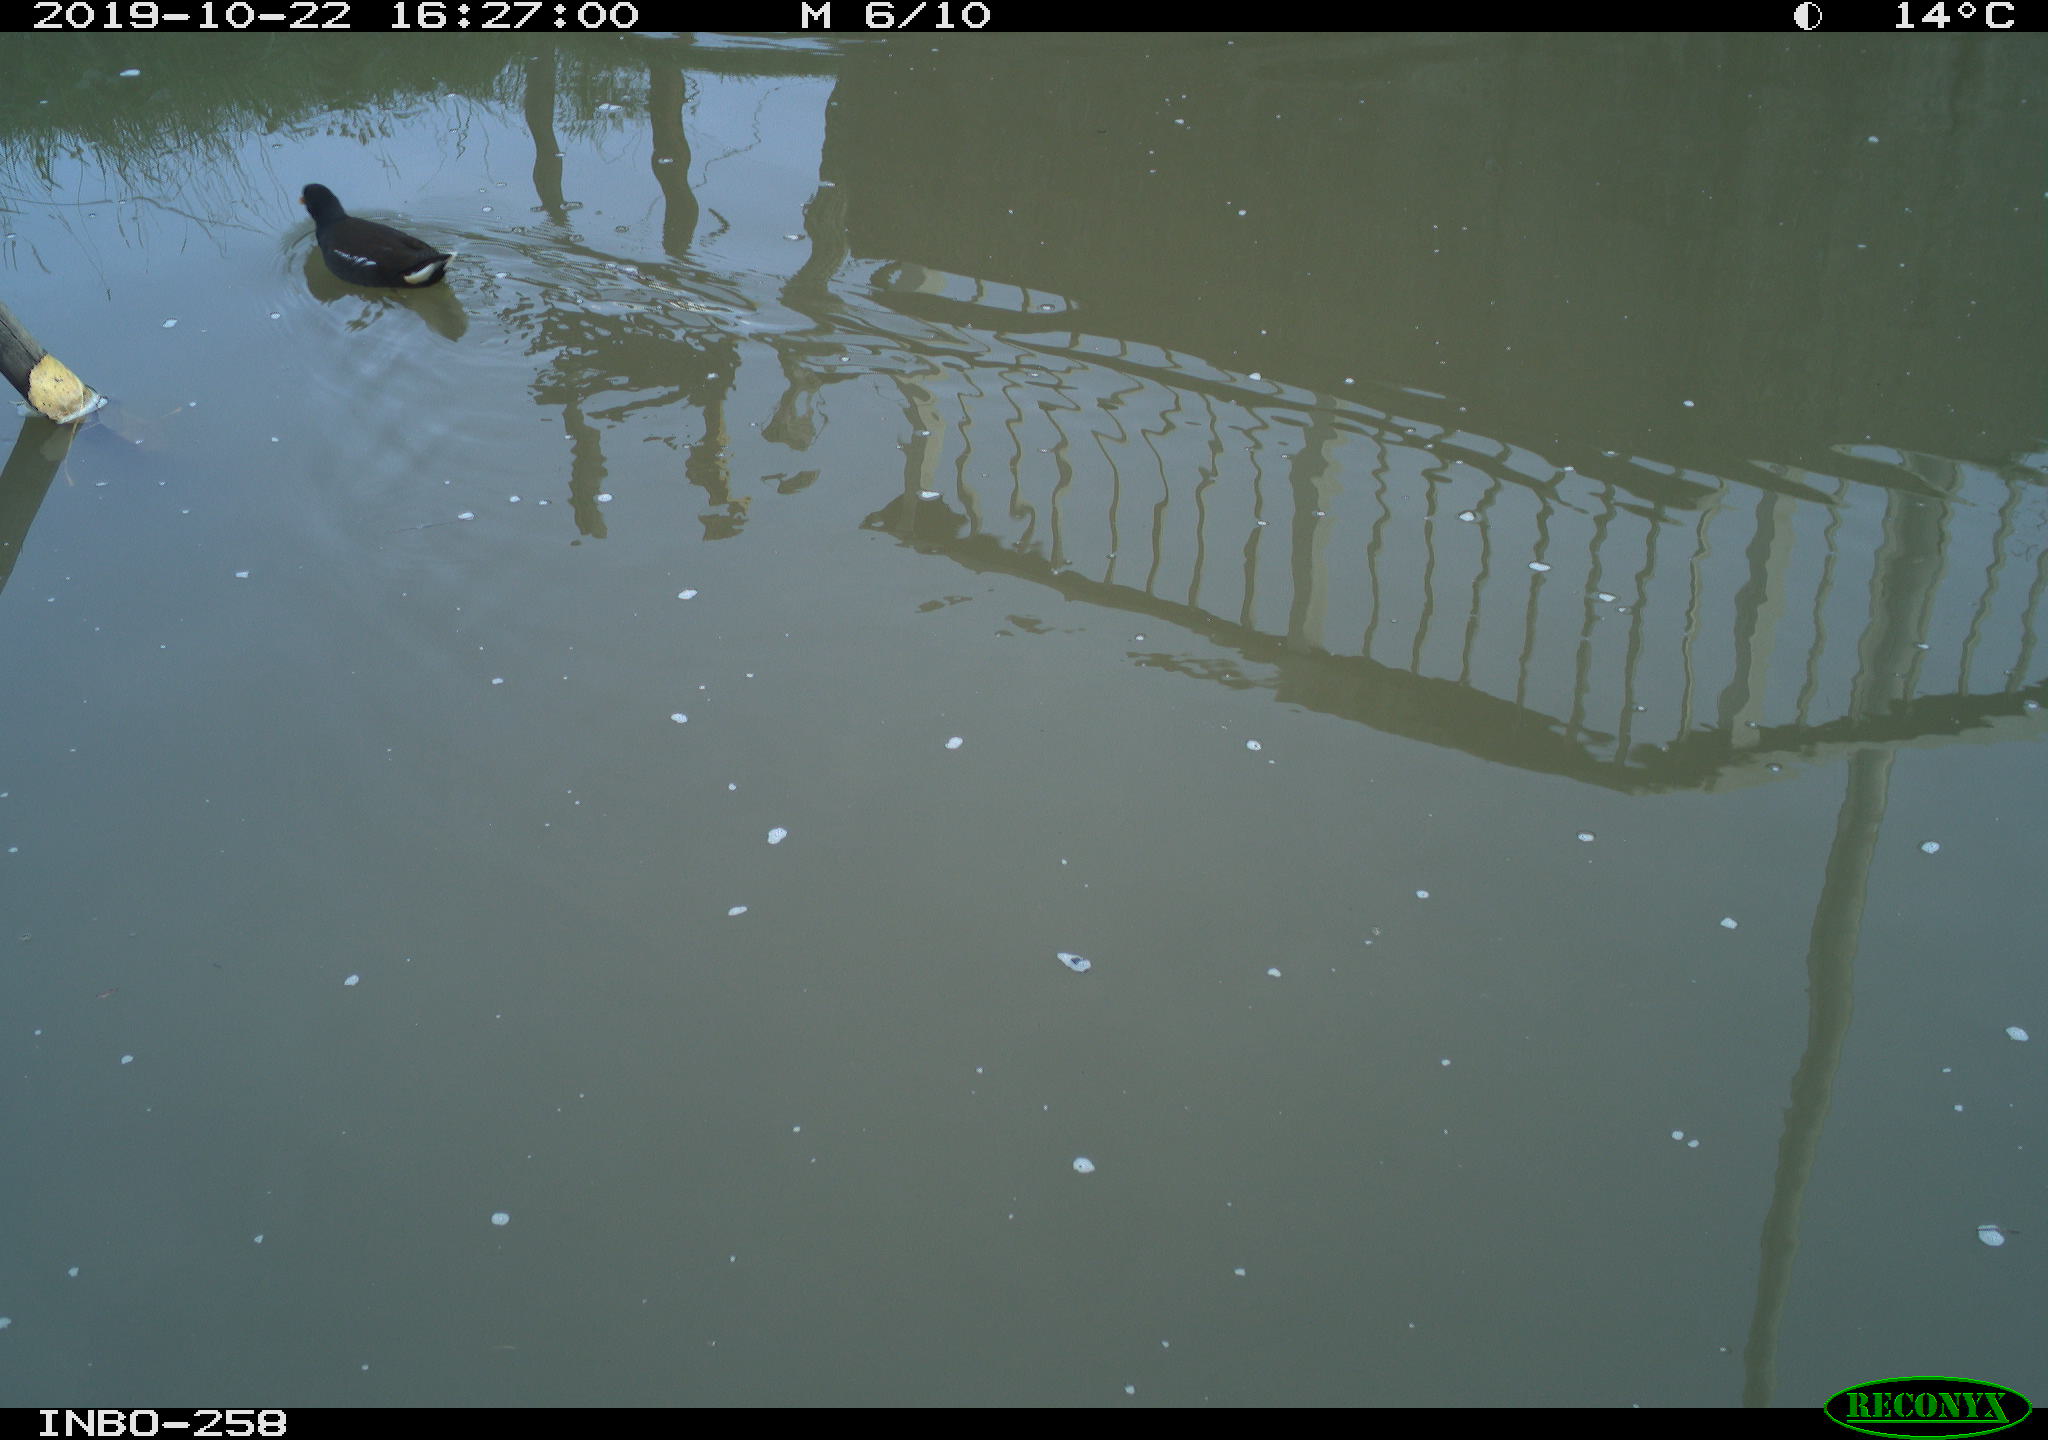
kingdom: Animalia
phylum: Chordata
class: Aves
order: Gruiformes
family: Rallidae
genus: Gallinula
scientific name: Gallinula chloropus
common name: Common moorhen
